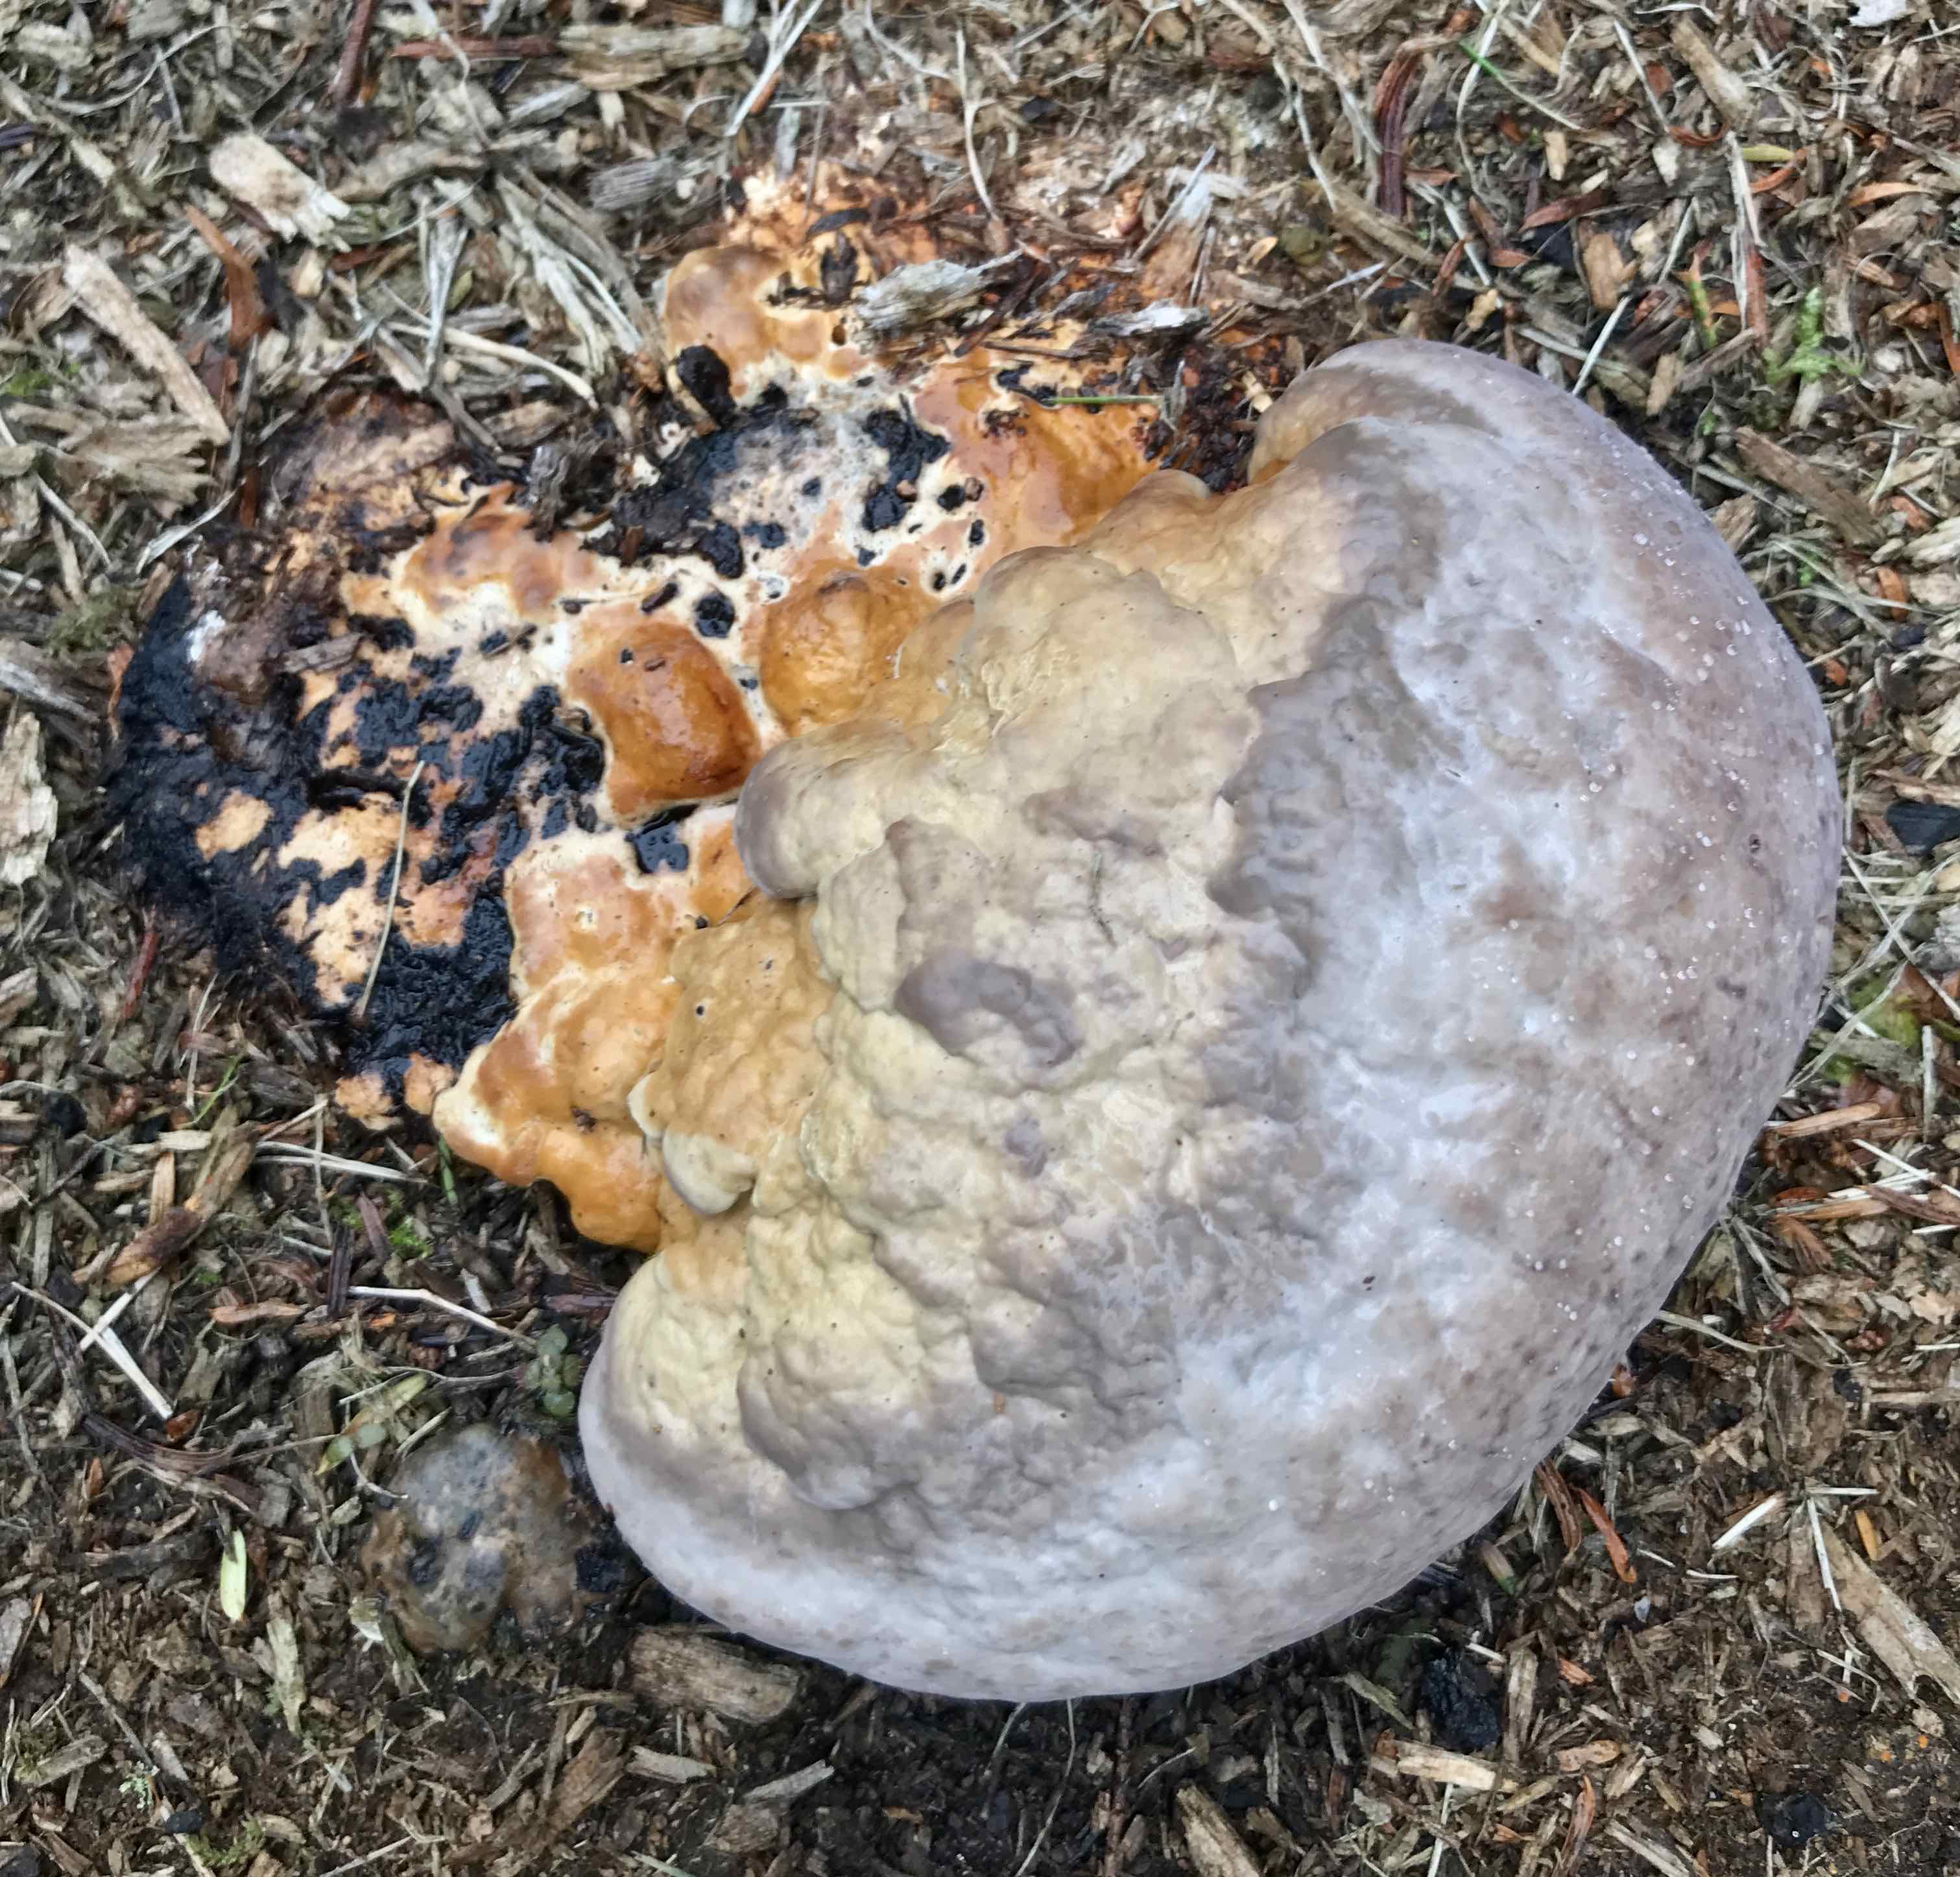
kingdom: Fungi
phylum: Basidiomycota
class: Agaricomycetes
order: Polyporales
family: Fomitopsidaceae
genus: Fomitopsis
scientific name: Fomitopsis pinicola
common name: randbæltet hovporesvamp
